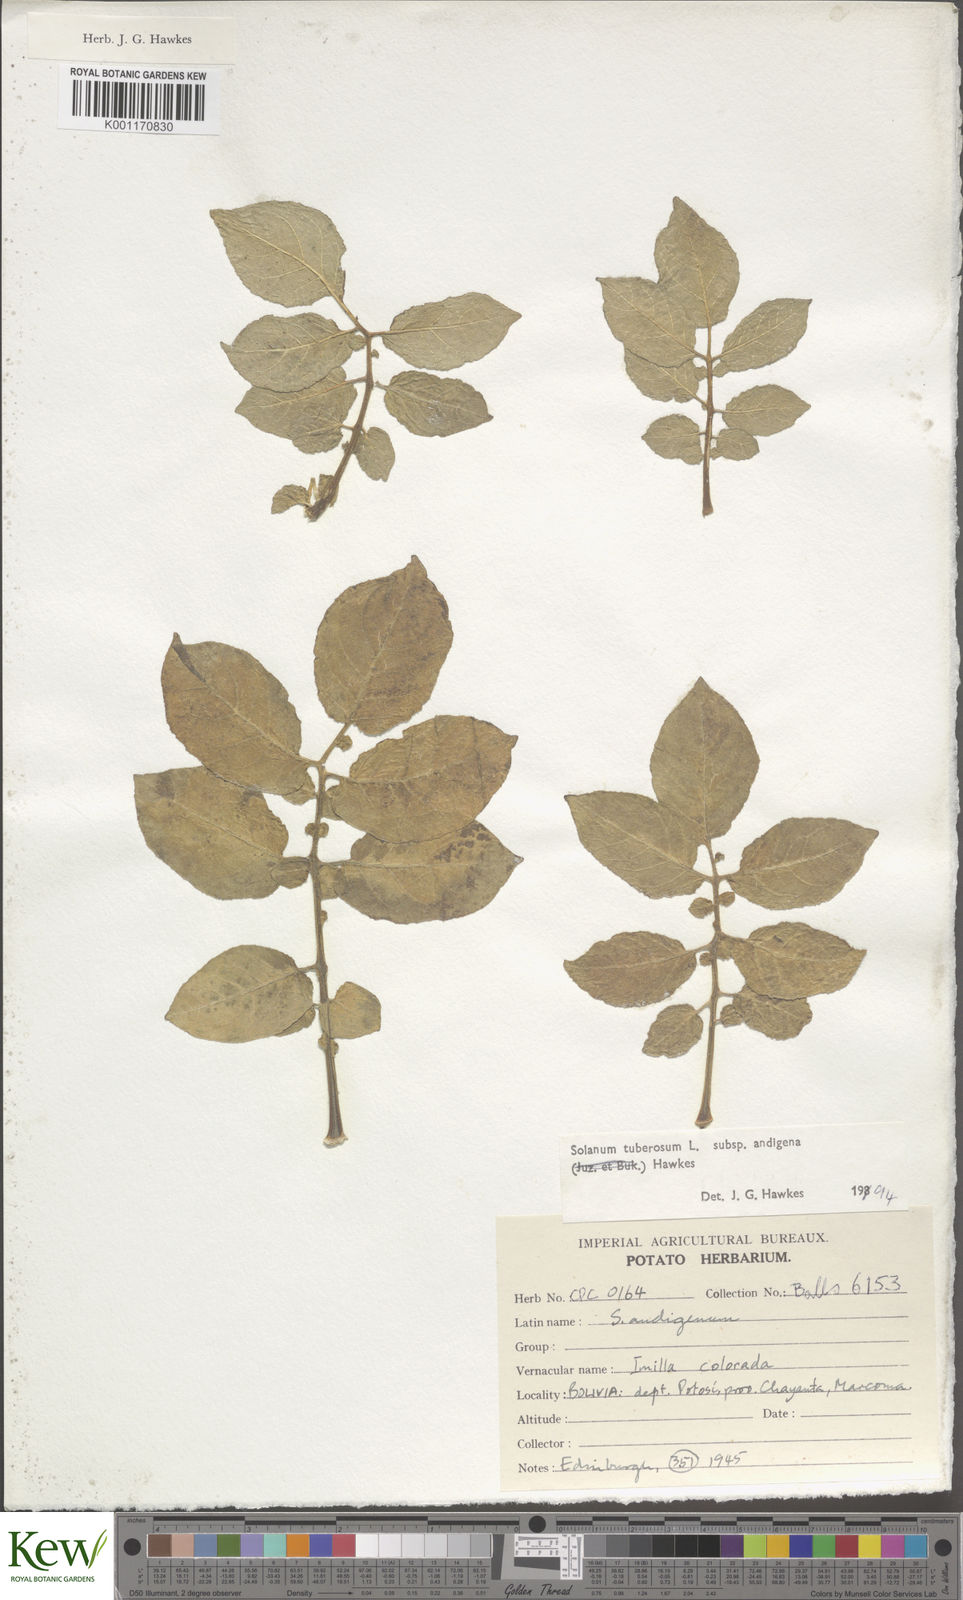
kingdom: Plantae
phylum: Tracheophyta
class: Magnoliopsida
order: Solanales
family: Solanaceae
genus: Solanum
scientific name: Solanum tuberosum
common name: Potato
